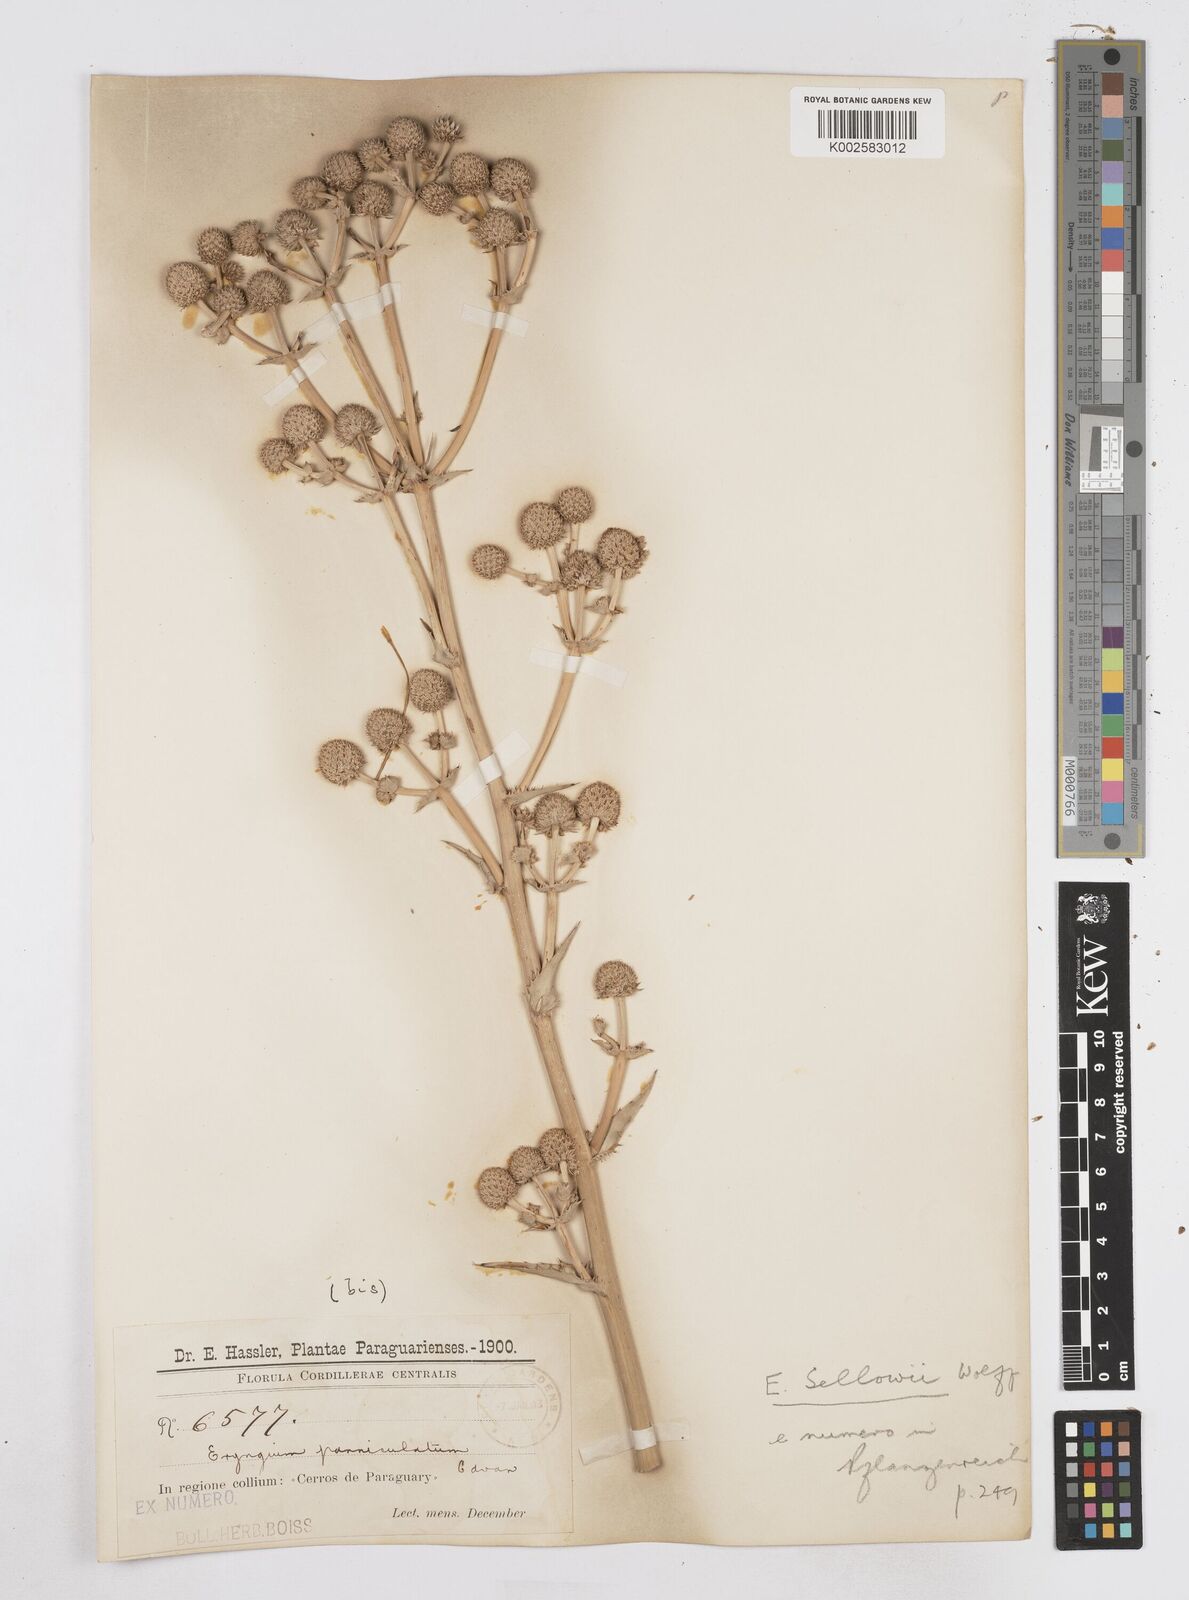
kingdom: Plantae
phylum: Tracheophyta
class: Magnoliopsida
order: Apiales
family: Apiaceae
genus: Eryngium
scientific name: Eryngium sellowii
